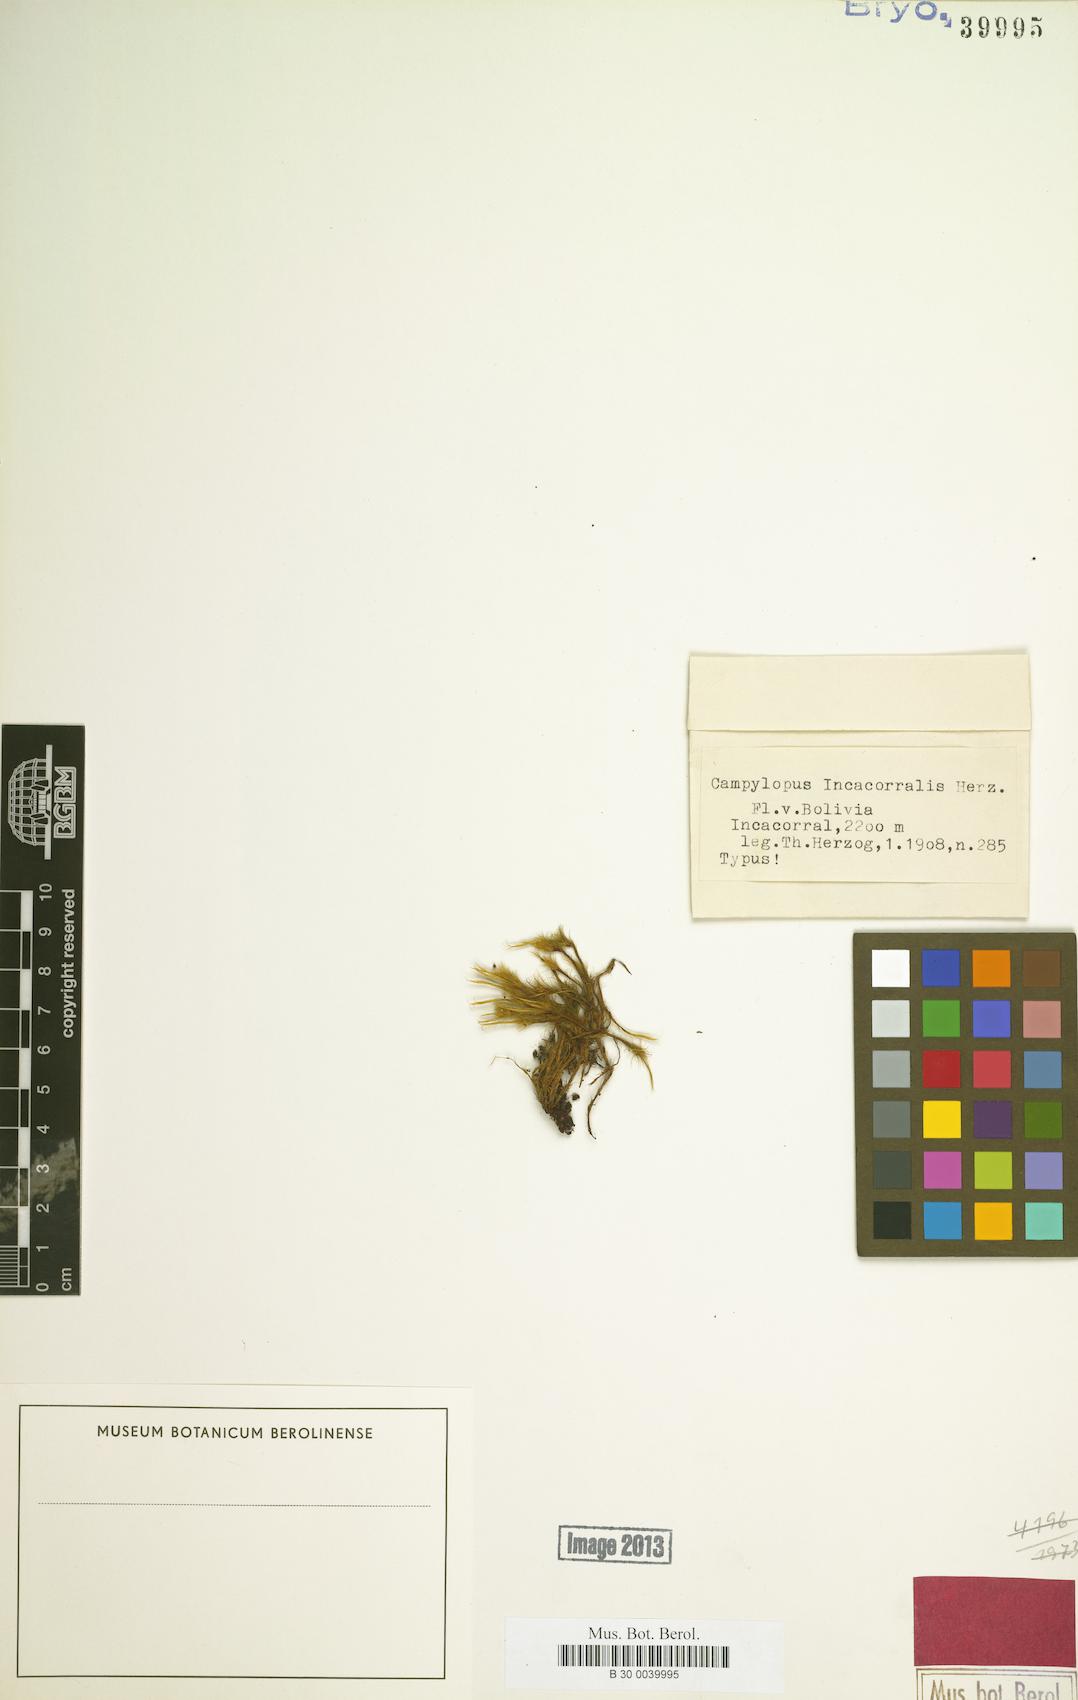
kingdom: Plantae
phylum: Bryophyta
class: Bryopsida
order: Dicranales
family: Leucobryaceae
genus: Campylopus
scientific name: Campylopus flexuosus
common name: Rusty swan-neck moss
